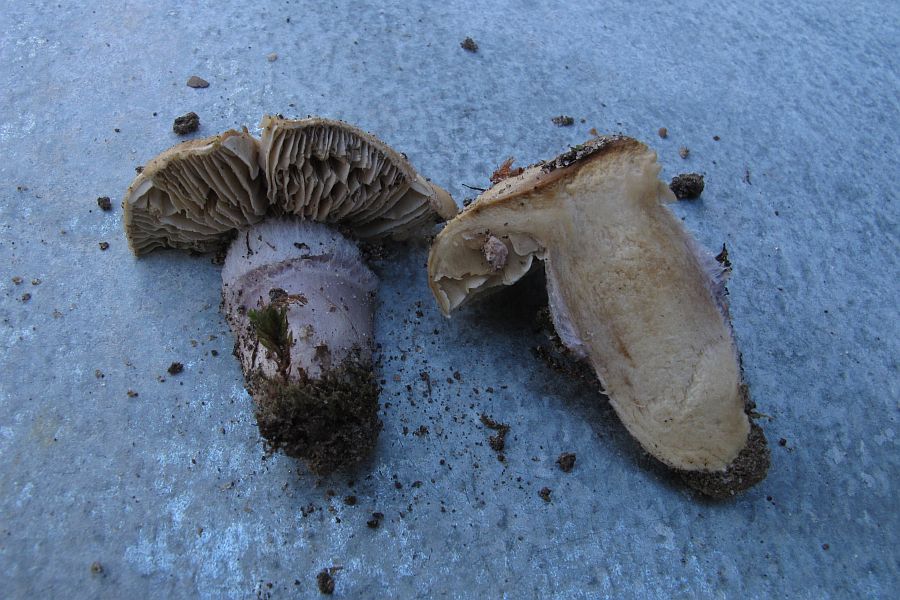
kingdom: Fungi
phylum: Basidiomycota
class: Agaricomycetes
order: Agaricales
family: Cortinariaceae
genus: Cortinarius
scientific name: Cortinarius elatior
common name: høj slørhat
